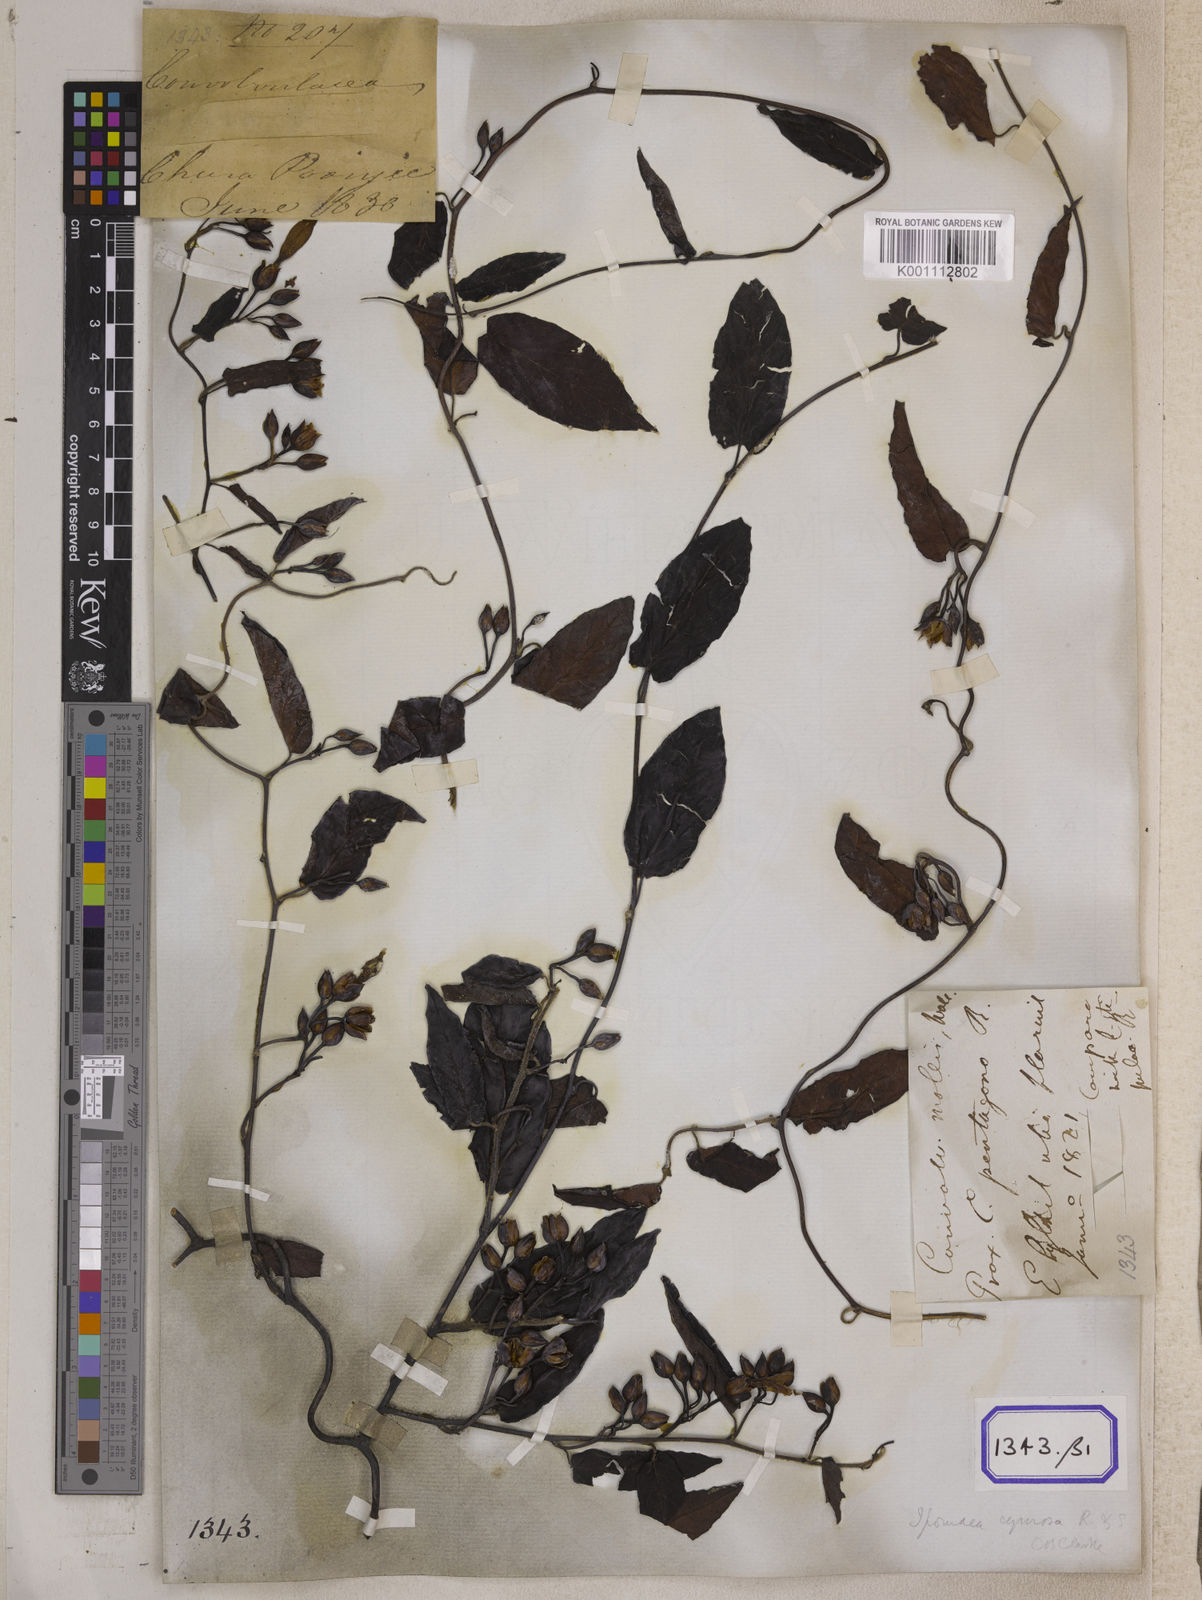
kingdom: Plantae
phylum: Tracheophyta
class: Magnoliopsida
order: Solanales
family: Convolvulaceae
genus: Convolvulus
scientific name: Convolvulus
